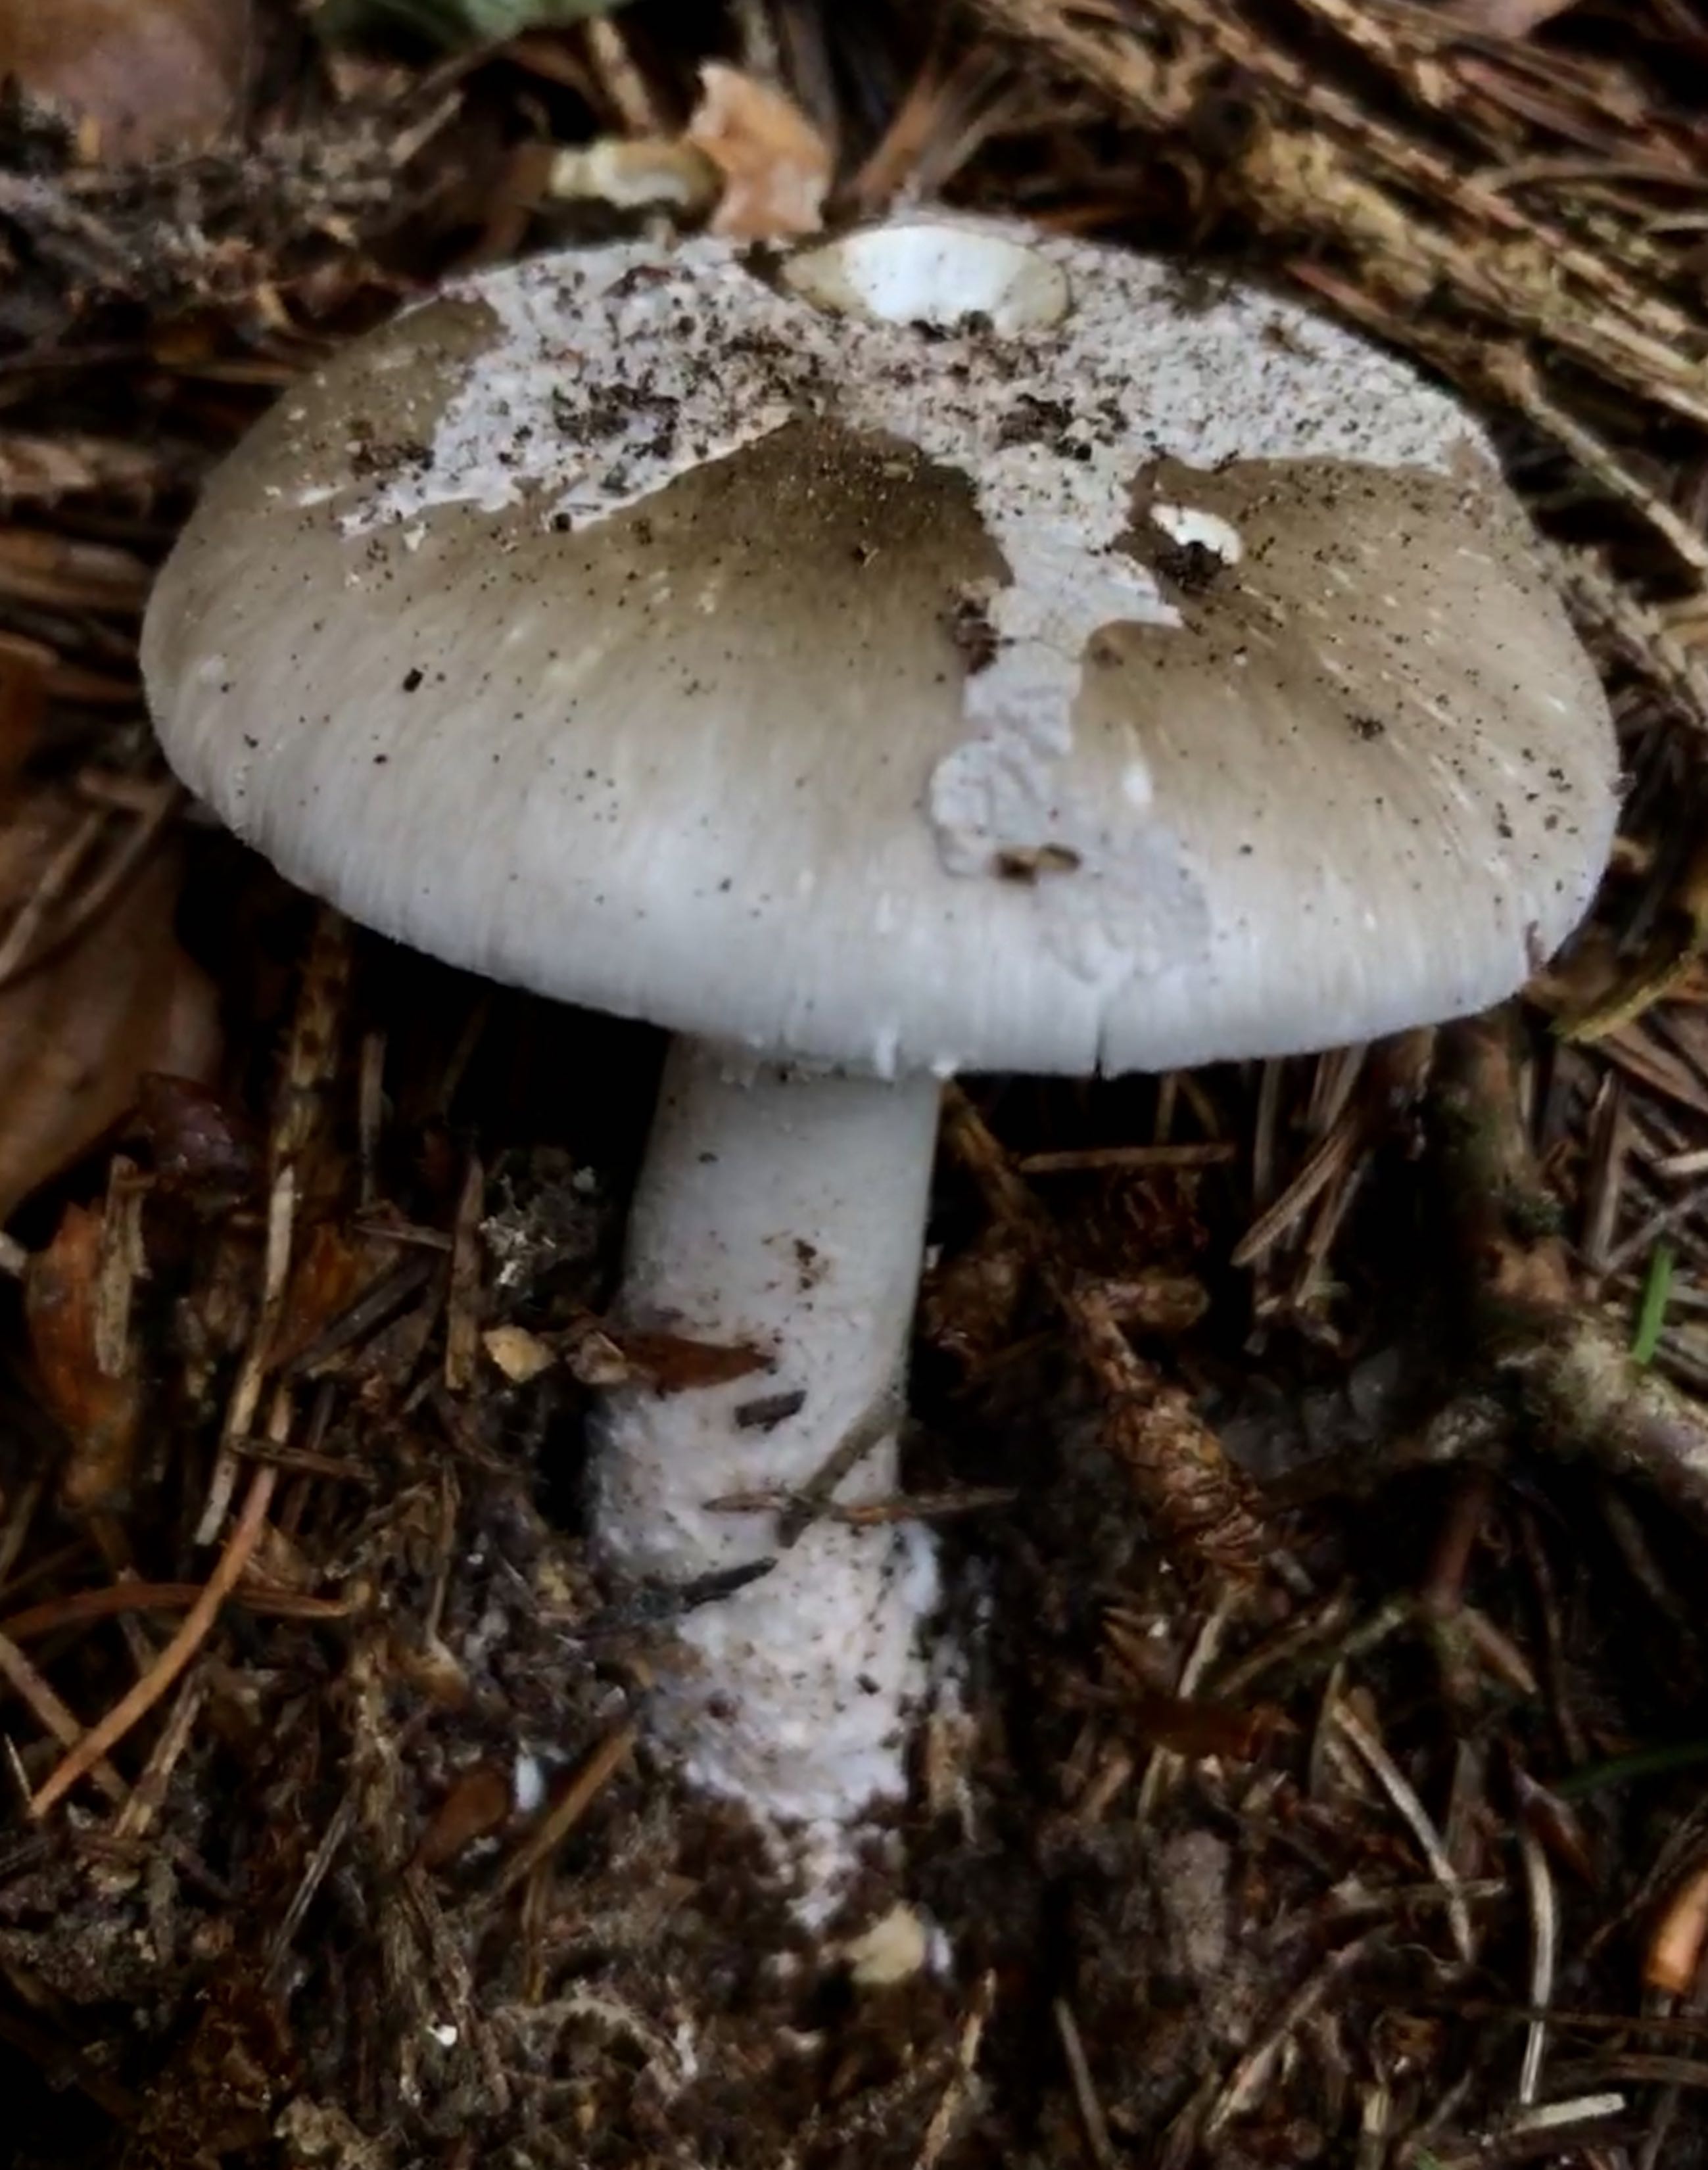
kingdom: Fungi
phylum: Basidiomycota
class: Agaricomycetes
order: Agaricales
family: Amanitaceae
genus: Amanita
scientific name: Amanita
